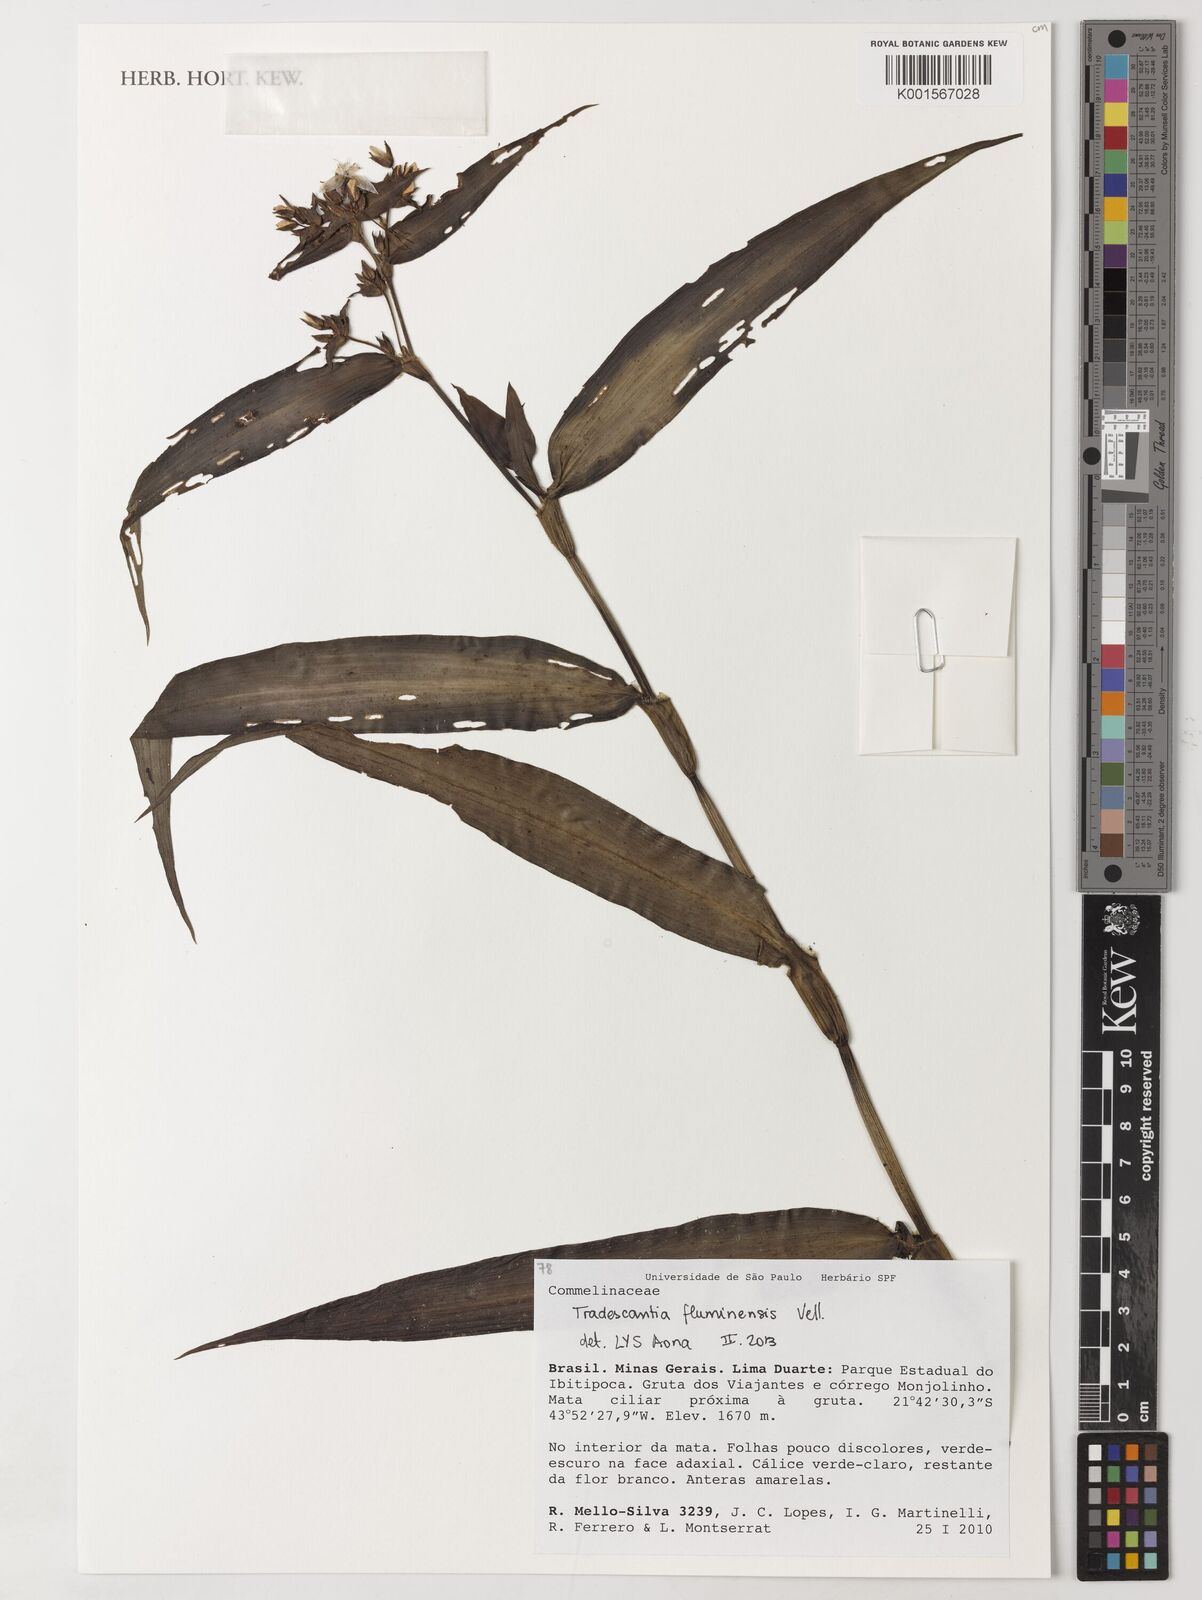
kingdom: Plantae
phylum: Tracheophyta
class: Liliopsida
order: Commelinales
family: Commelinaceae
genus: Tradescantia
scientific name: Tradescantia fluminensis
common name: Wandering-jew
